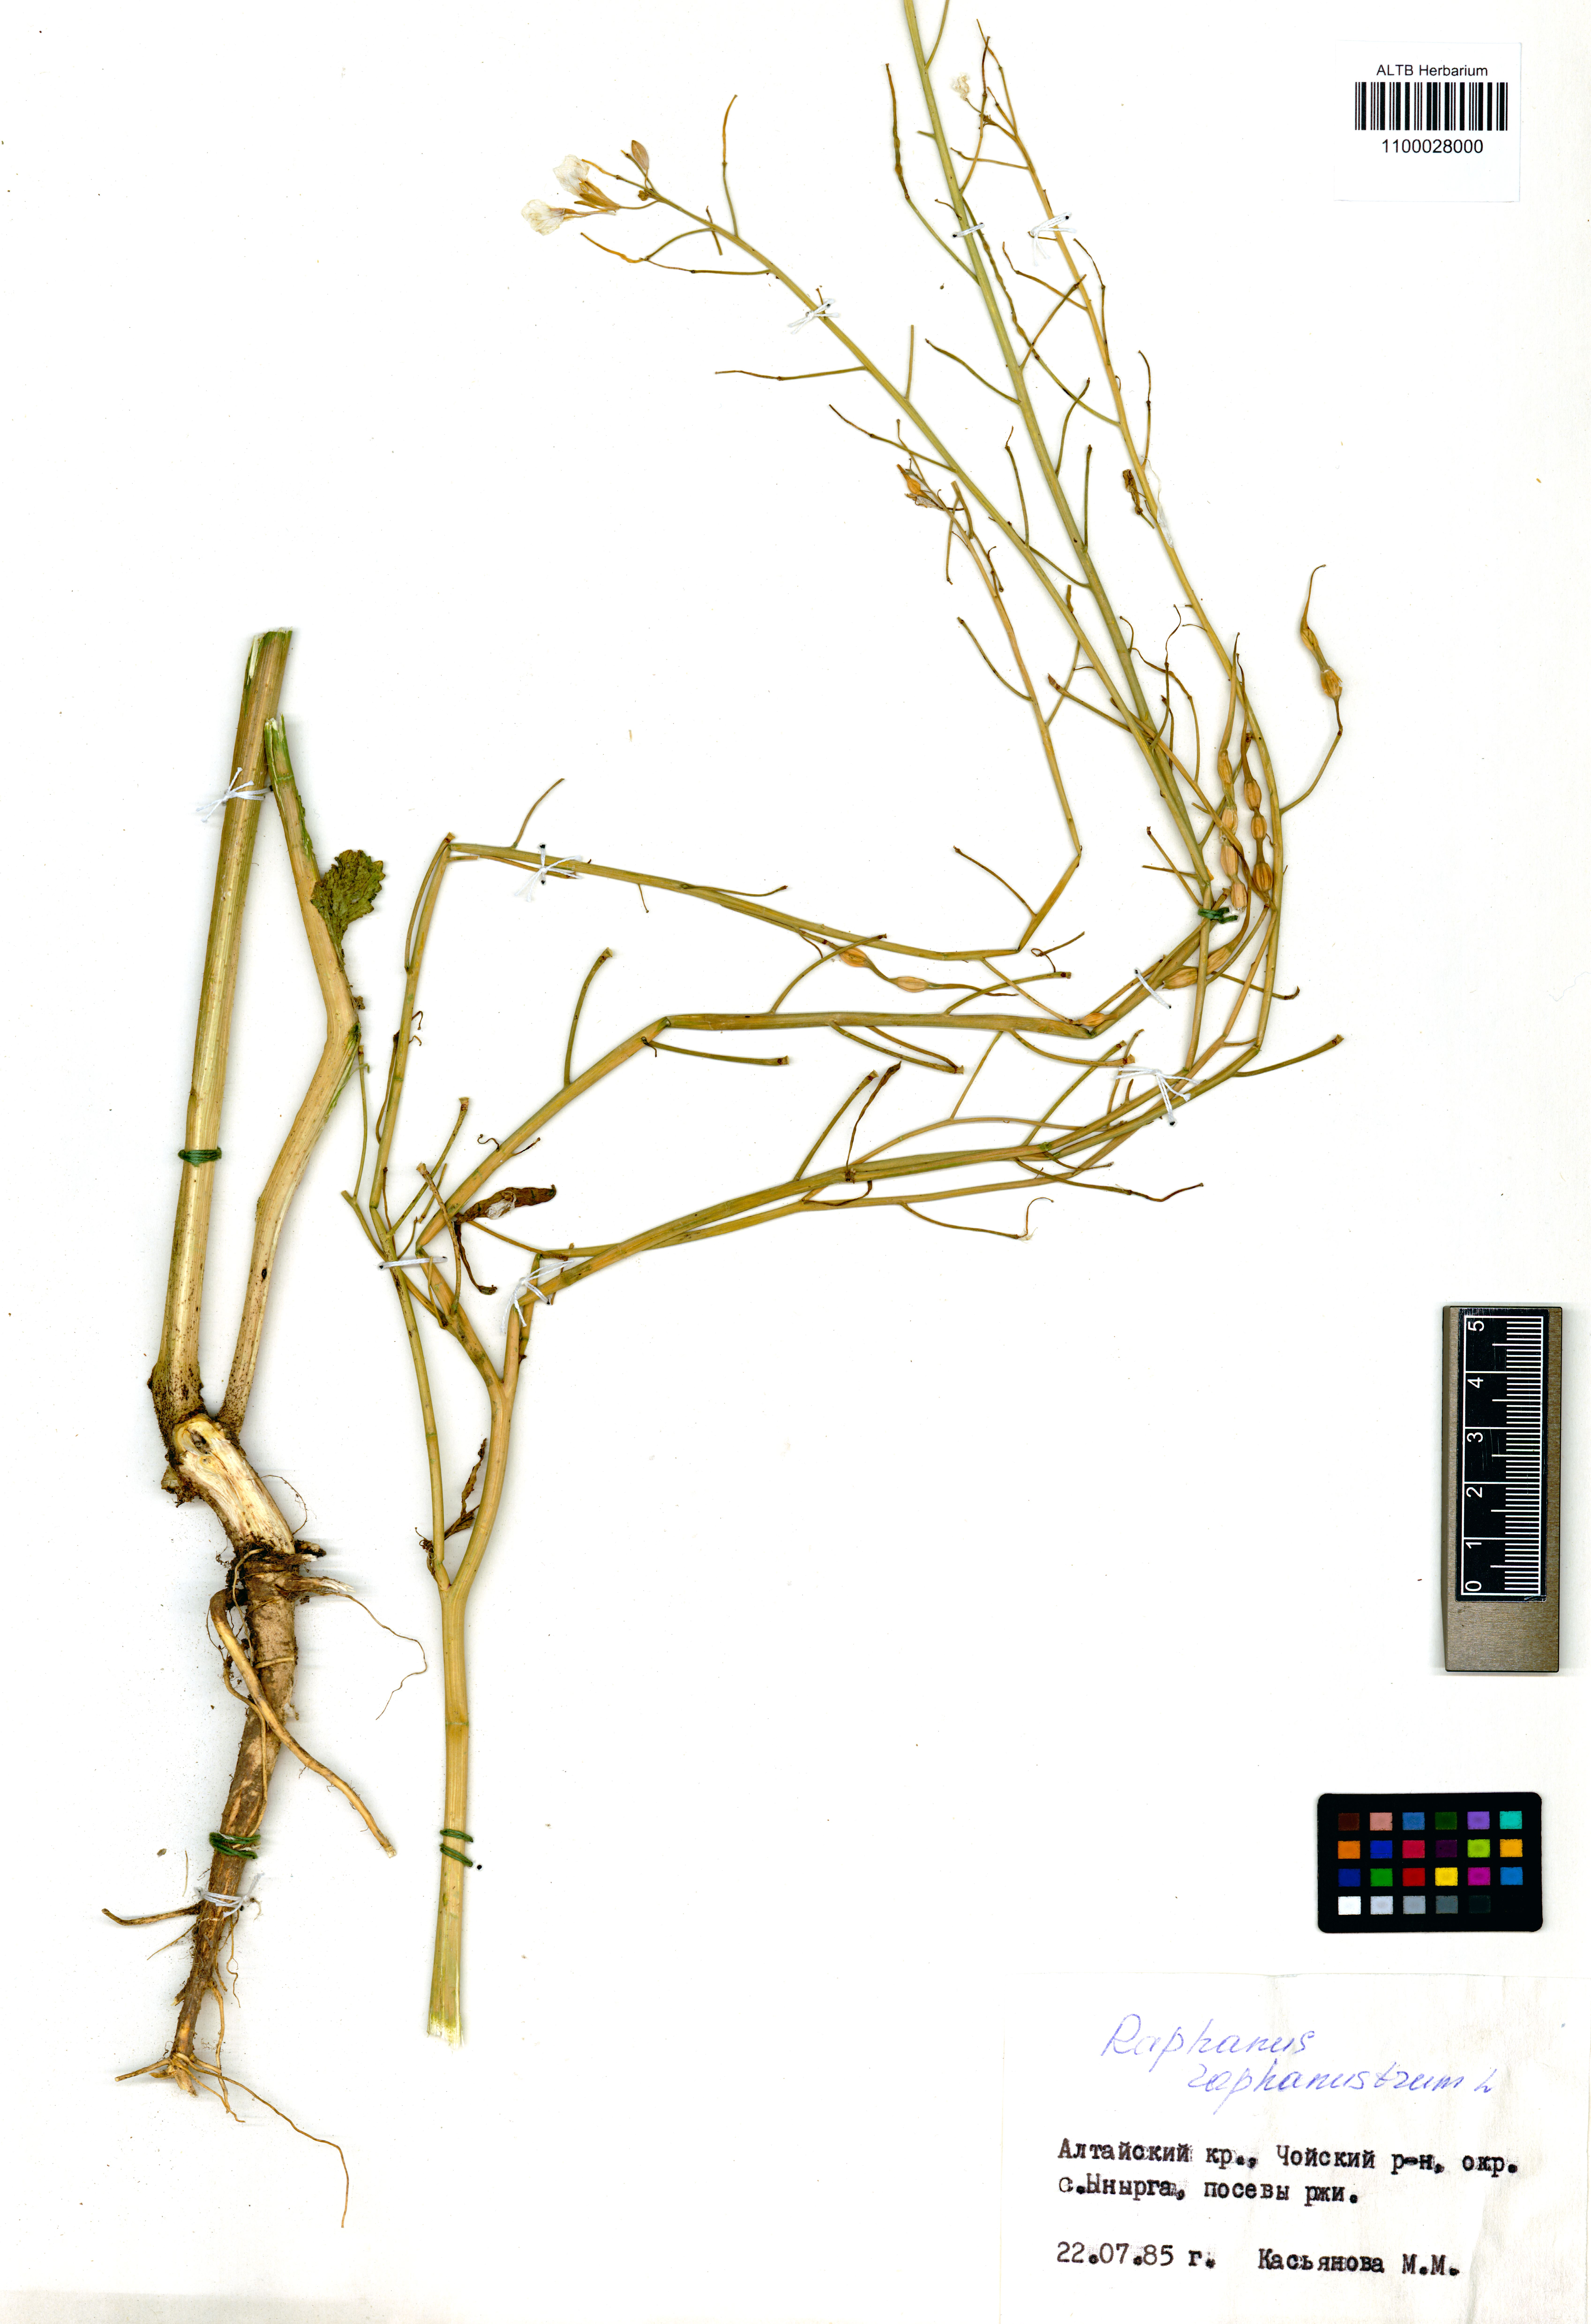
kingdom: Plantae
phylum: Tracheophyta
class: Magnoliopsida
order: Brassicales
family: Brassicaceae
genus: Raphanus
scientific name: Raphanus raphanistrum
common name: Wild radish
